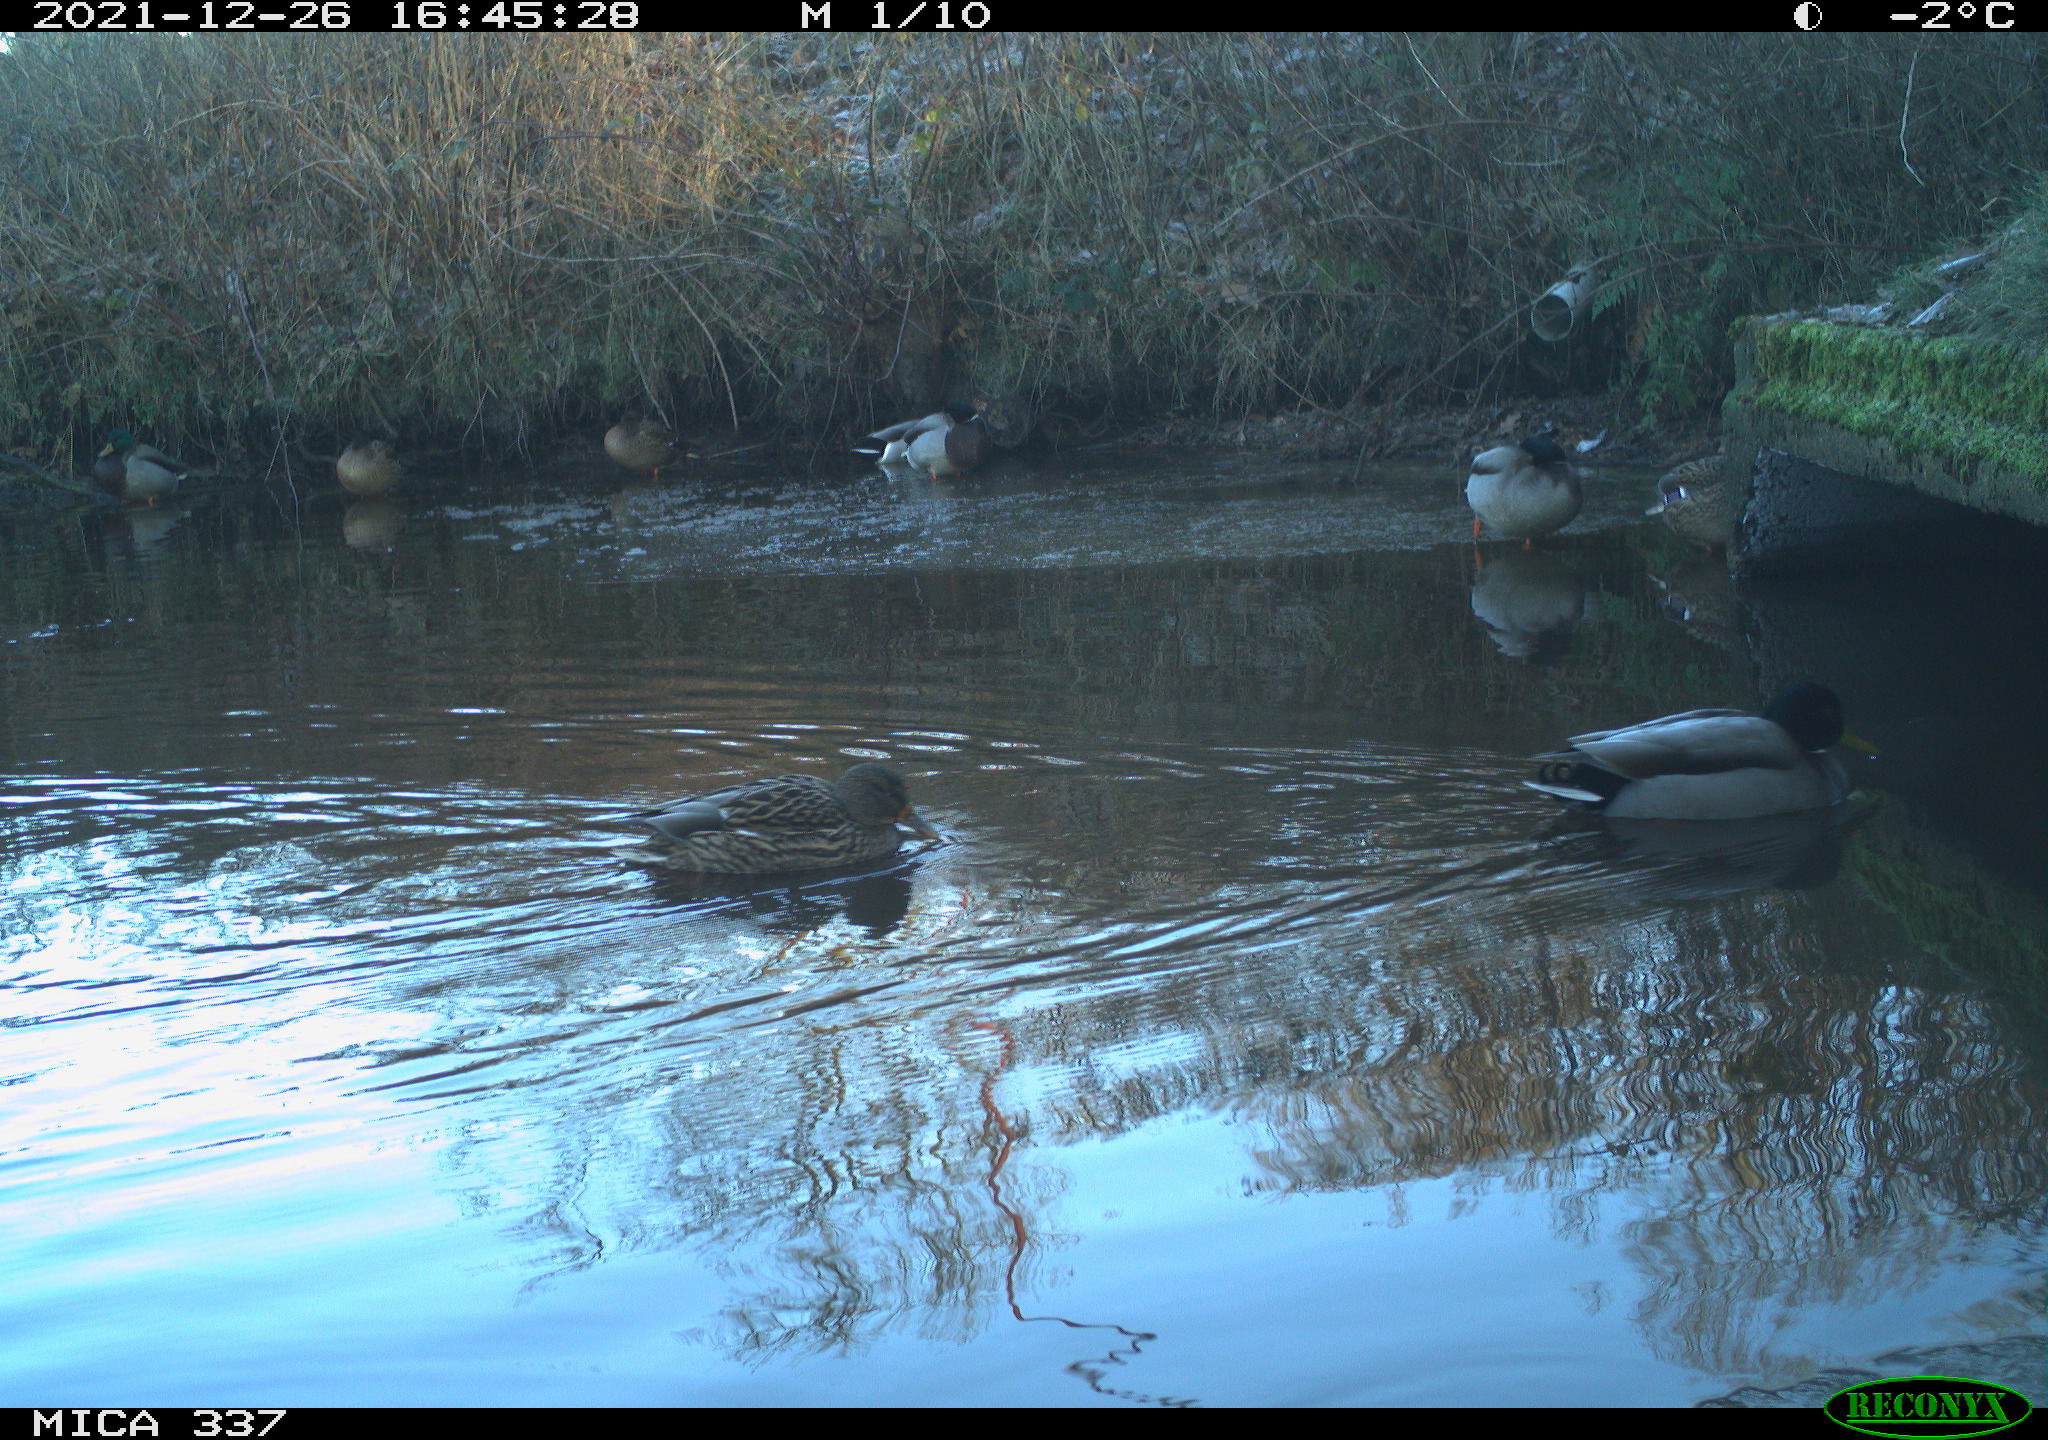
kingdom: Animalia
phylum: Chordata
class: Aves
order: Anseriformes
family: Anatidae
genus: Anas
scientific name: Anas platyrhynchos
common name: Mallard
